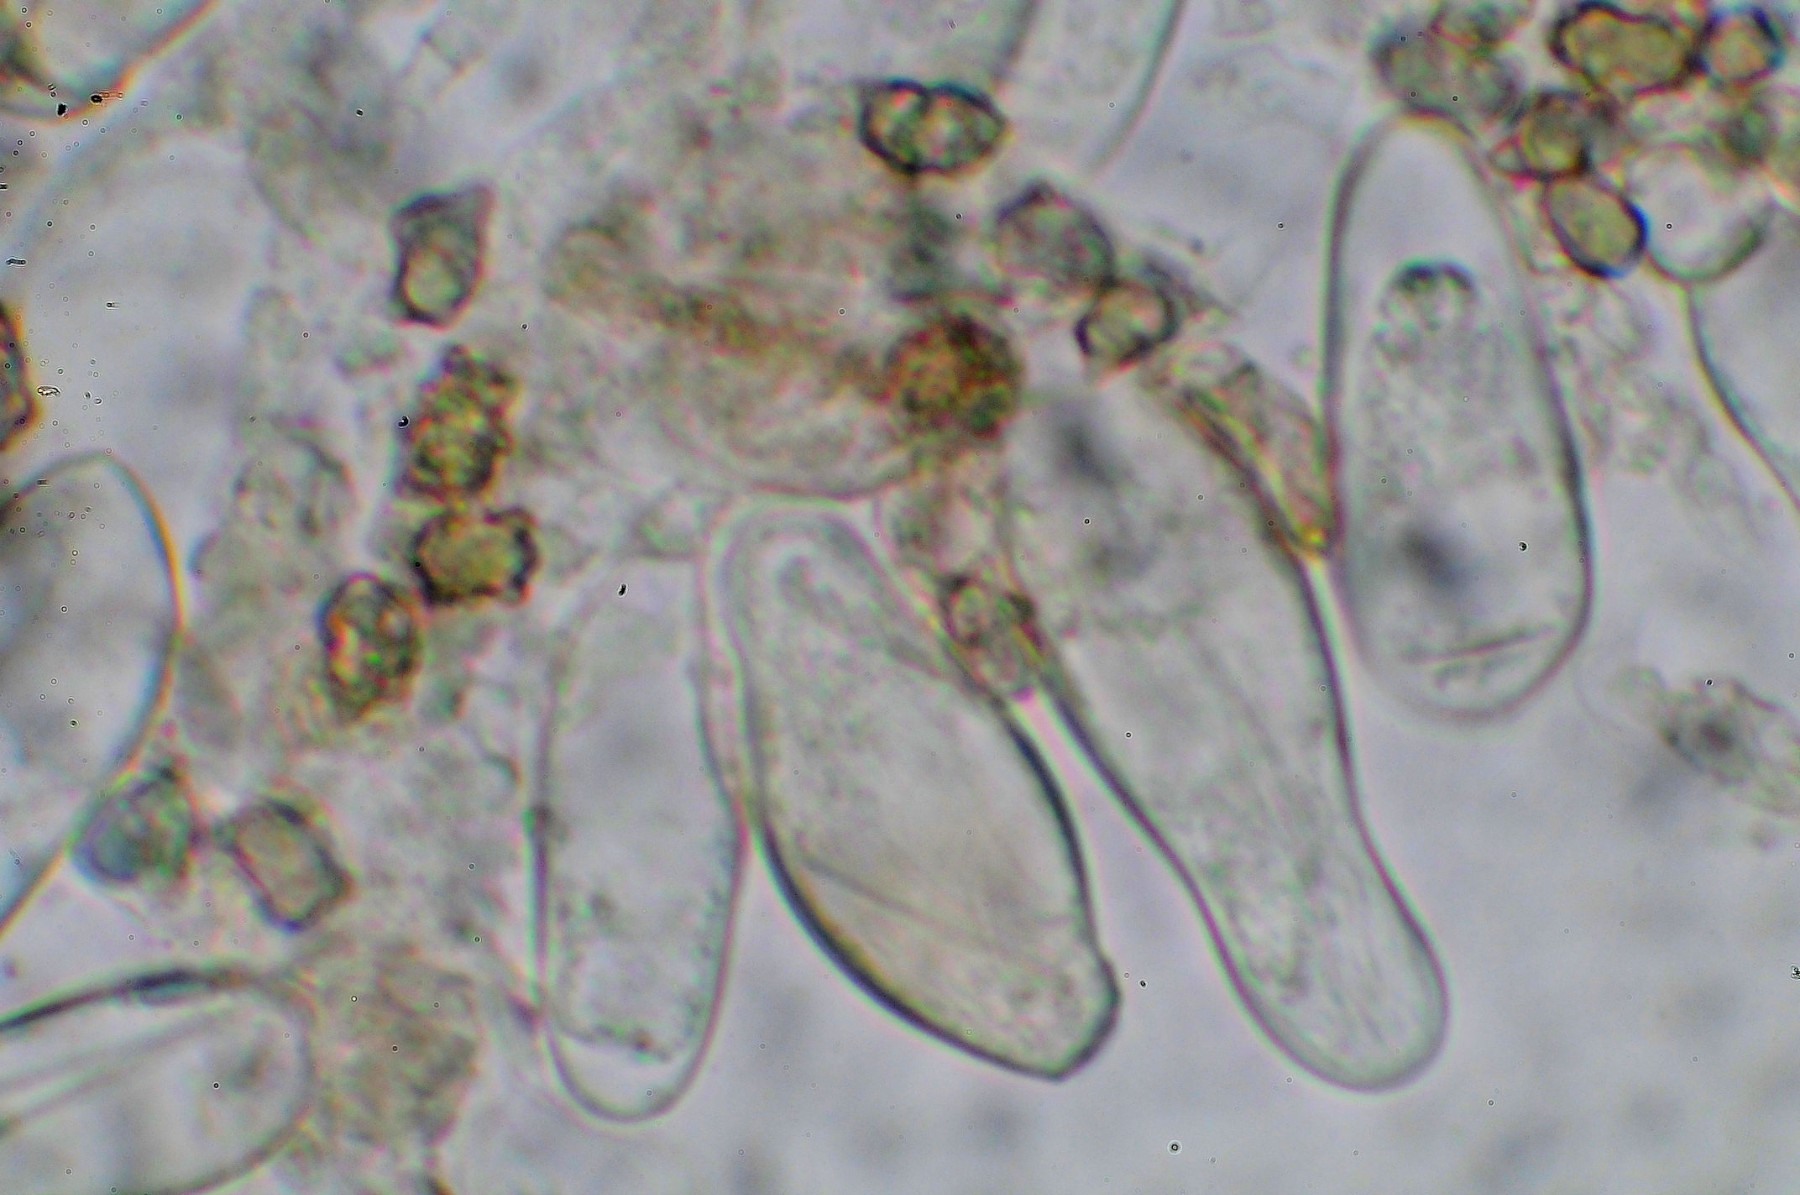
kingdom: Fungi
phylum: Basidiomycota
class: Agaricomycetes
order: Agaricales
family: Inocybaceae
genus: Inocybe
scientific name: Inocybe stellatospora
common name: spidsskællet trævlhat
